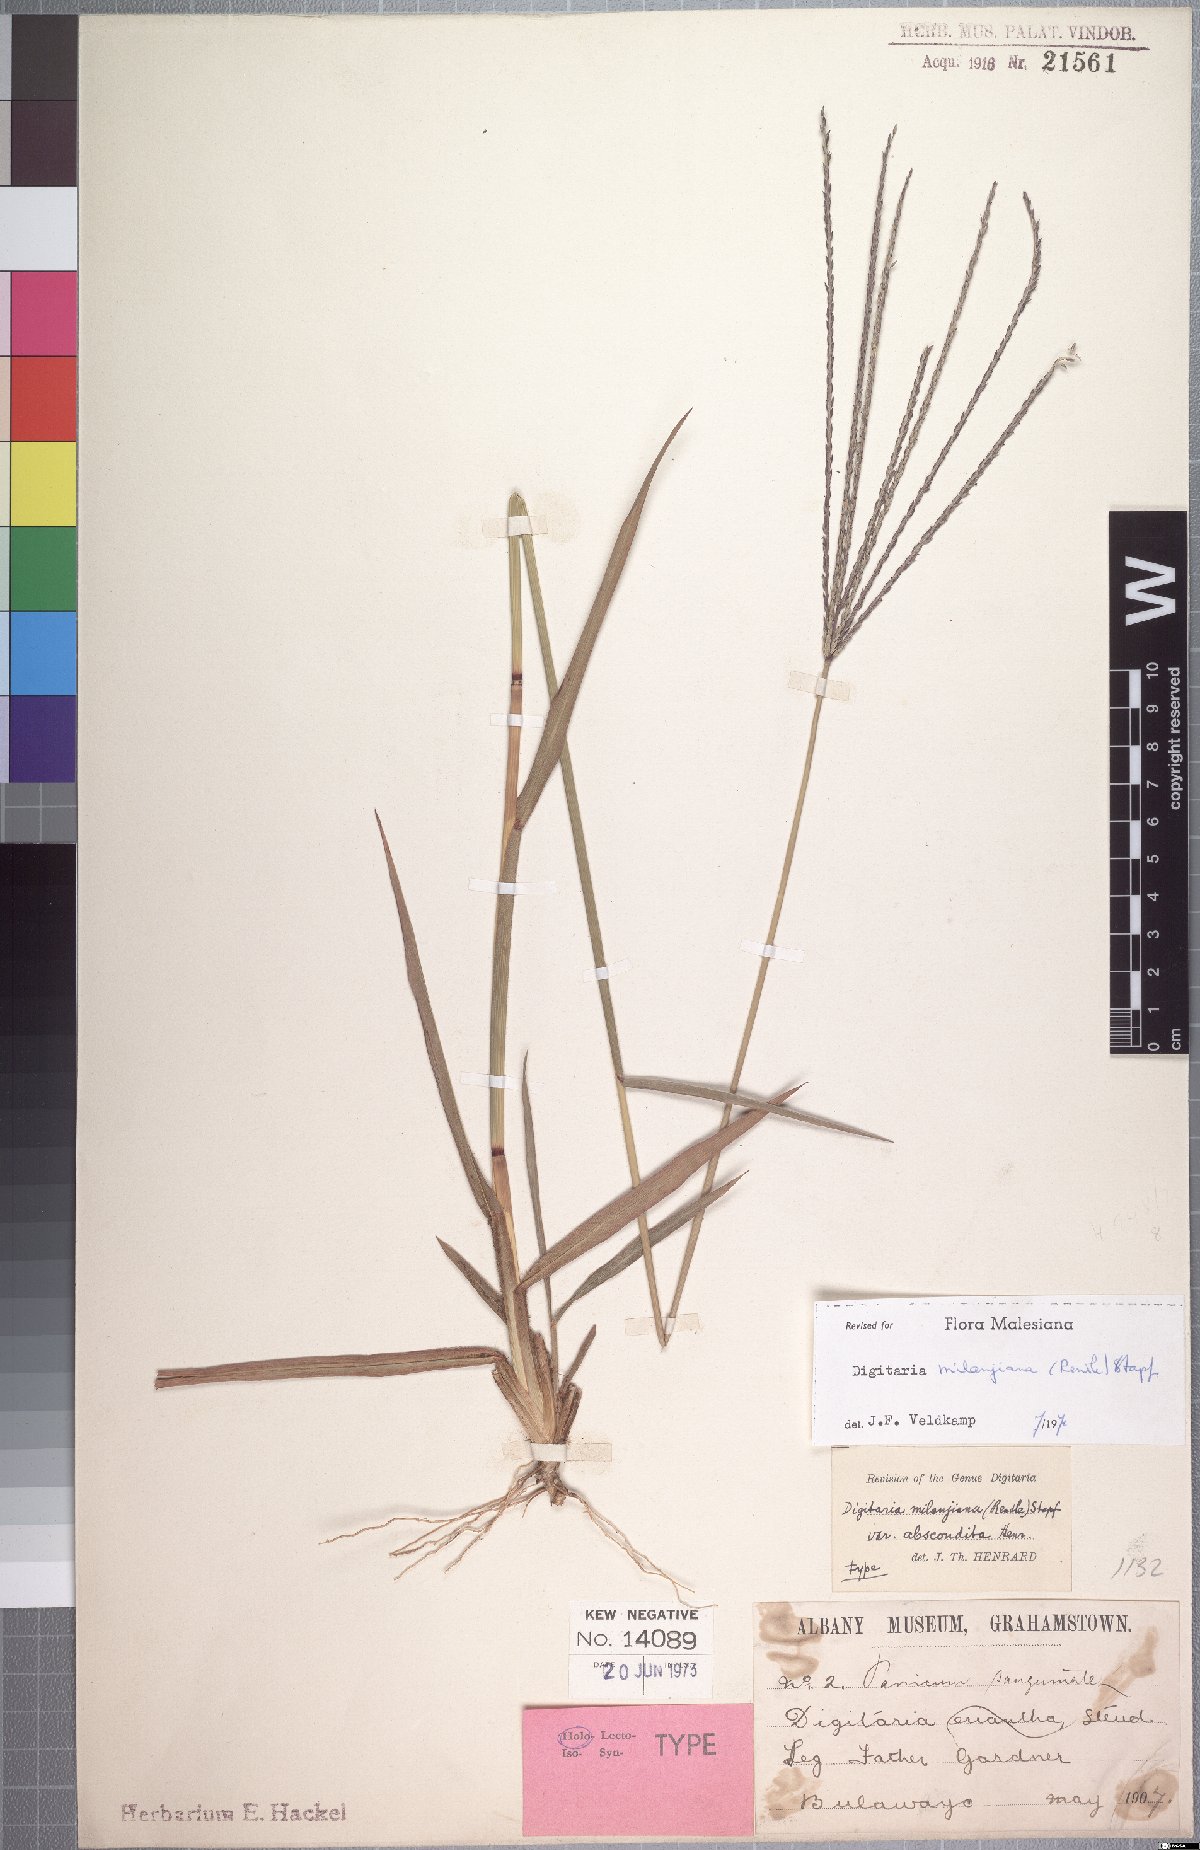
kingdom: Plantae
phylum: Tracheophyta
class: Liliopsida
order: Poales
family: Poaceae
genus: Digitaria
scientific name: Digitaria milanjiana
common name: Madagascar crabgrass
